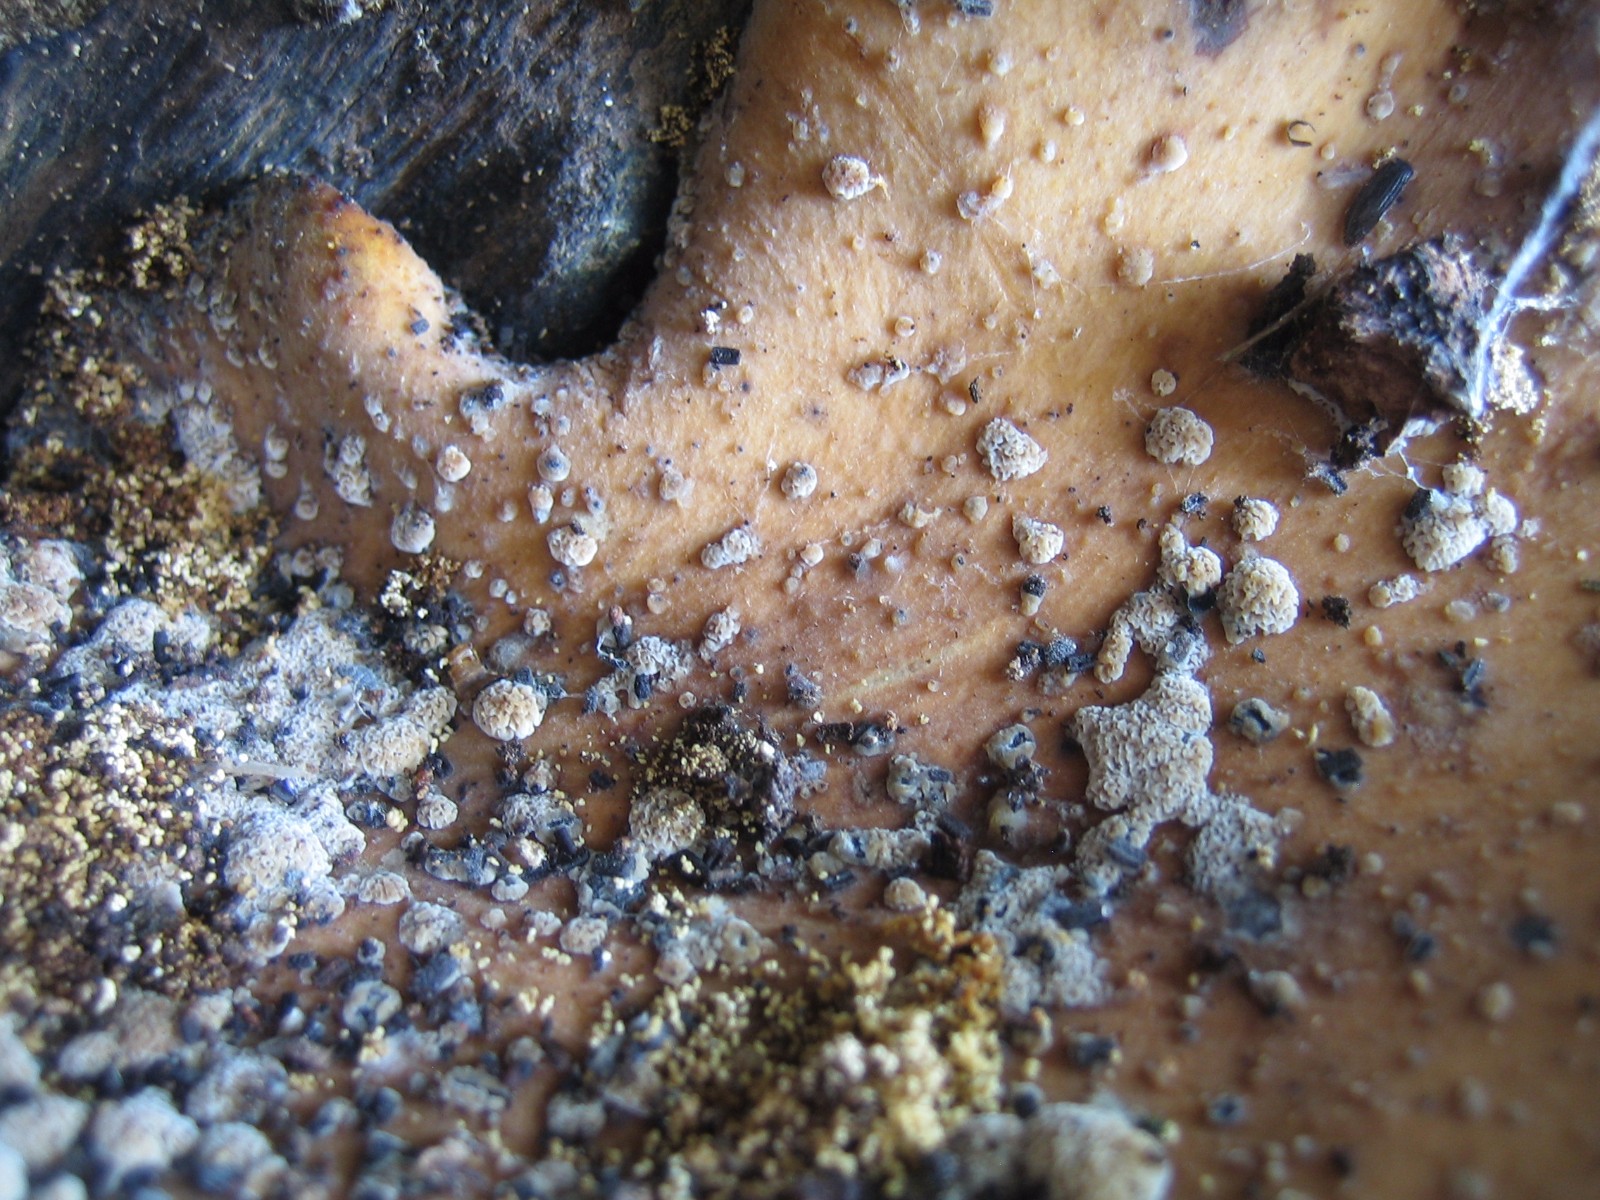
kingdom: Fungi
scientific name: Fungi
